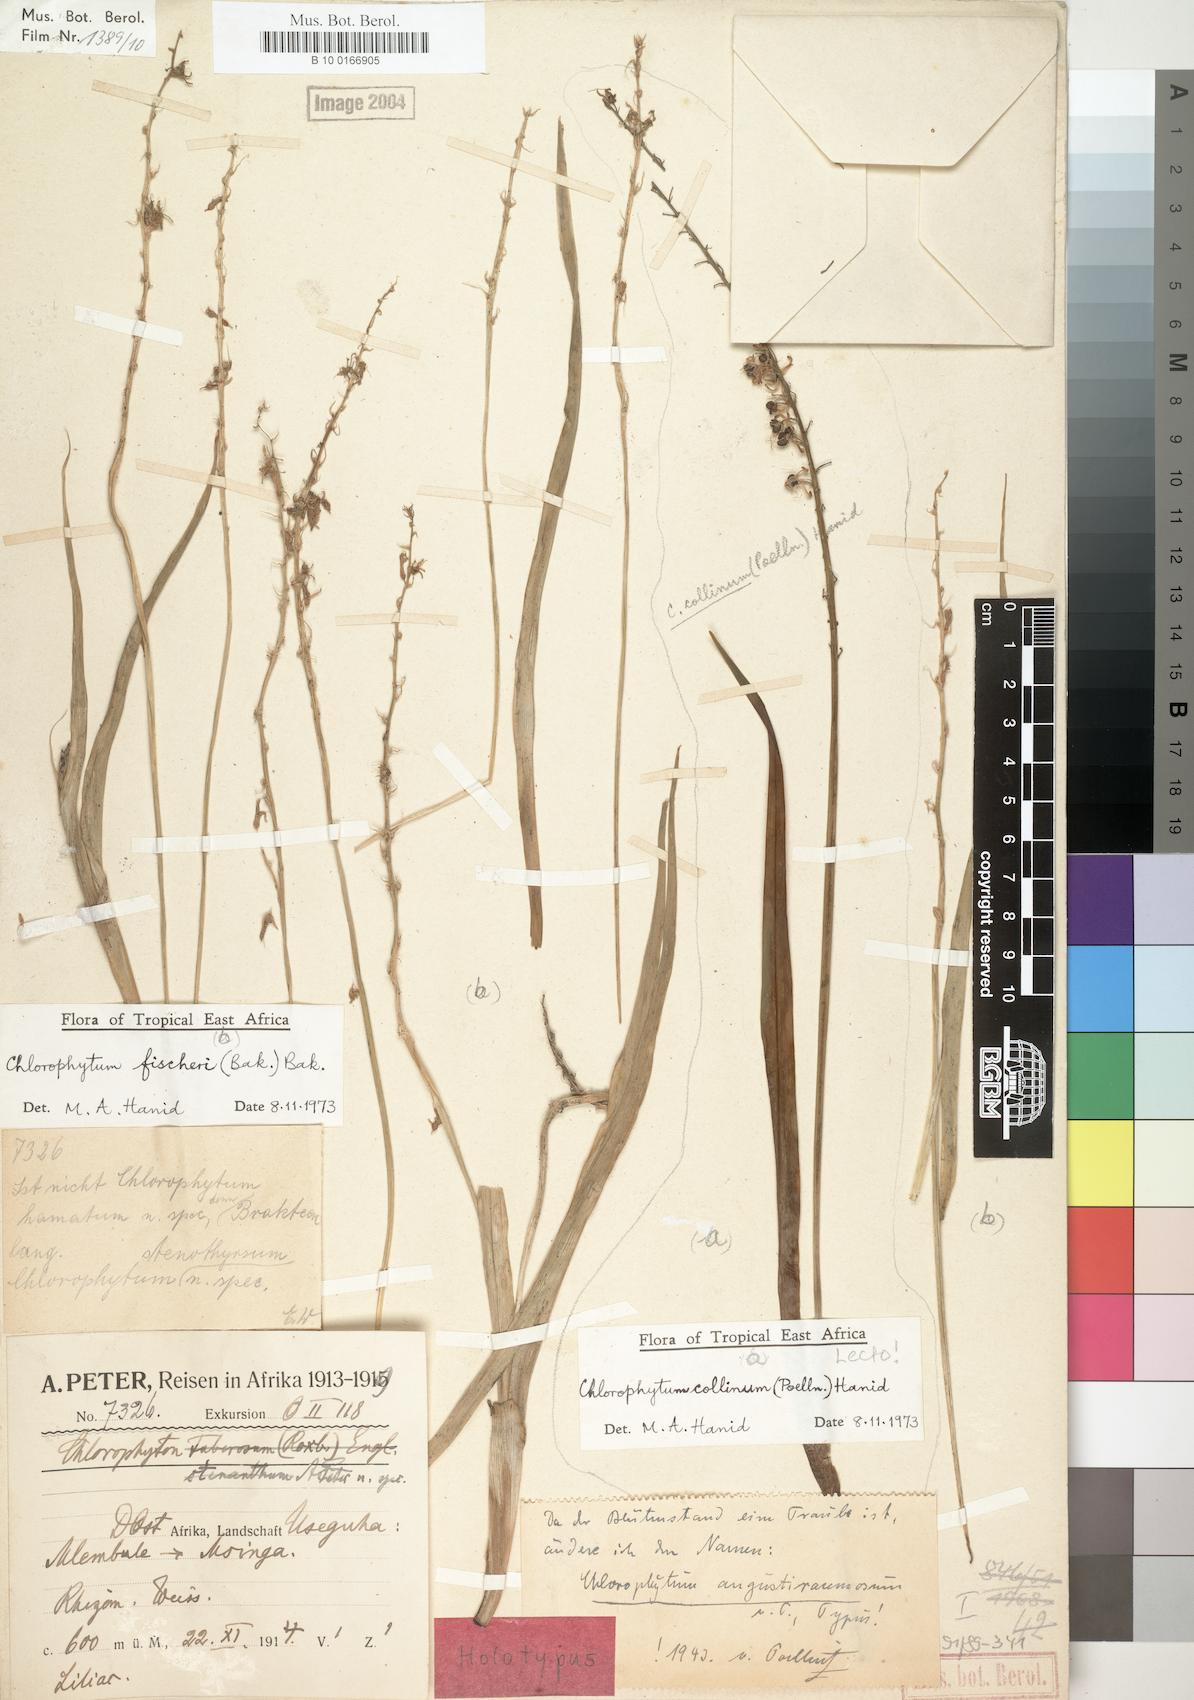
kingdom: Plantae
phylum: Tracheophyta
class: Liliopsida
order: Asparagales
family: Asparagaceae
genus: Chlorophytum
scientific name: Chlorophytum collinum
